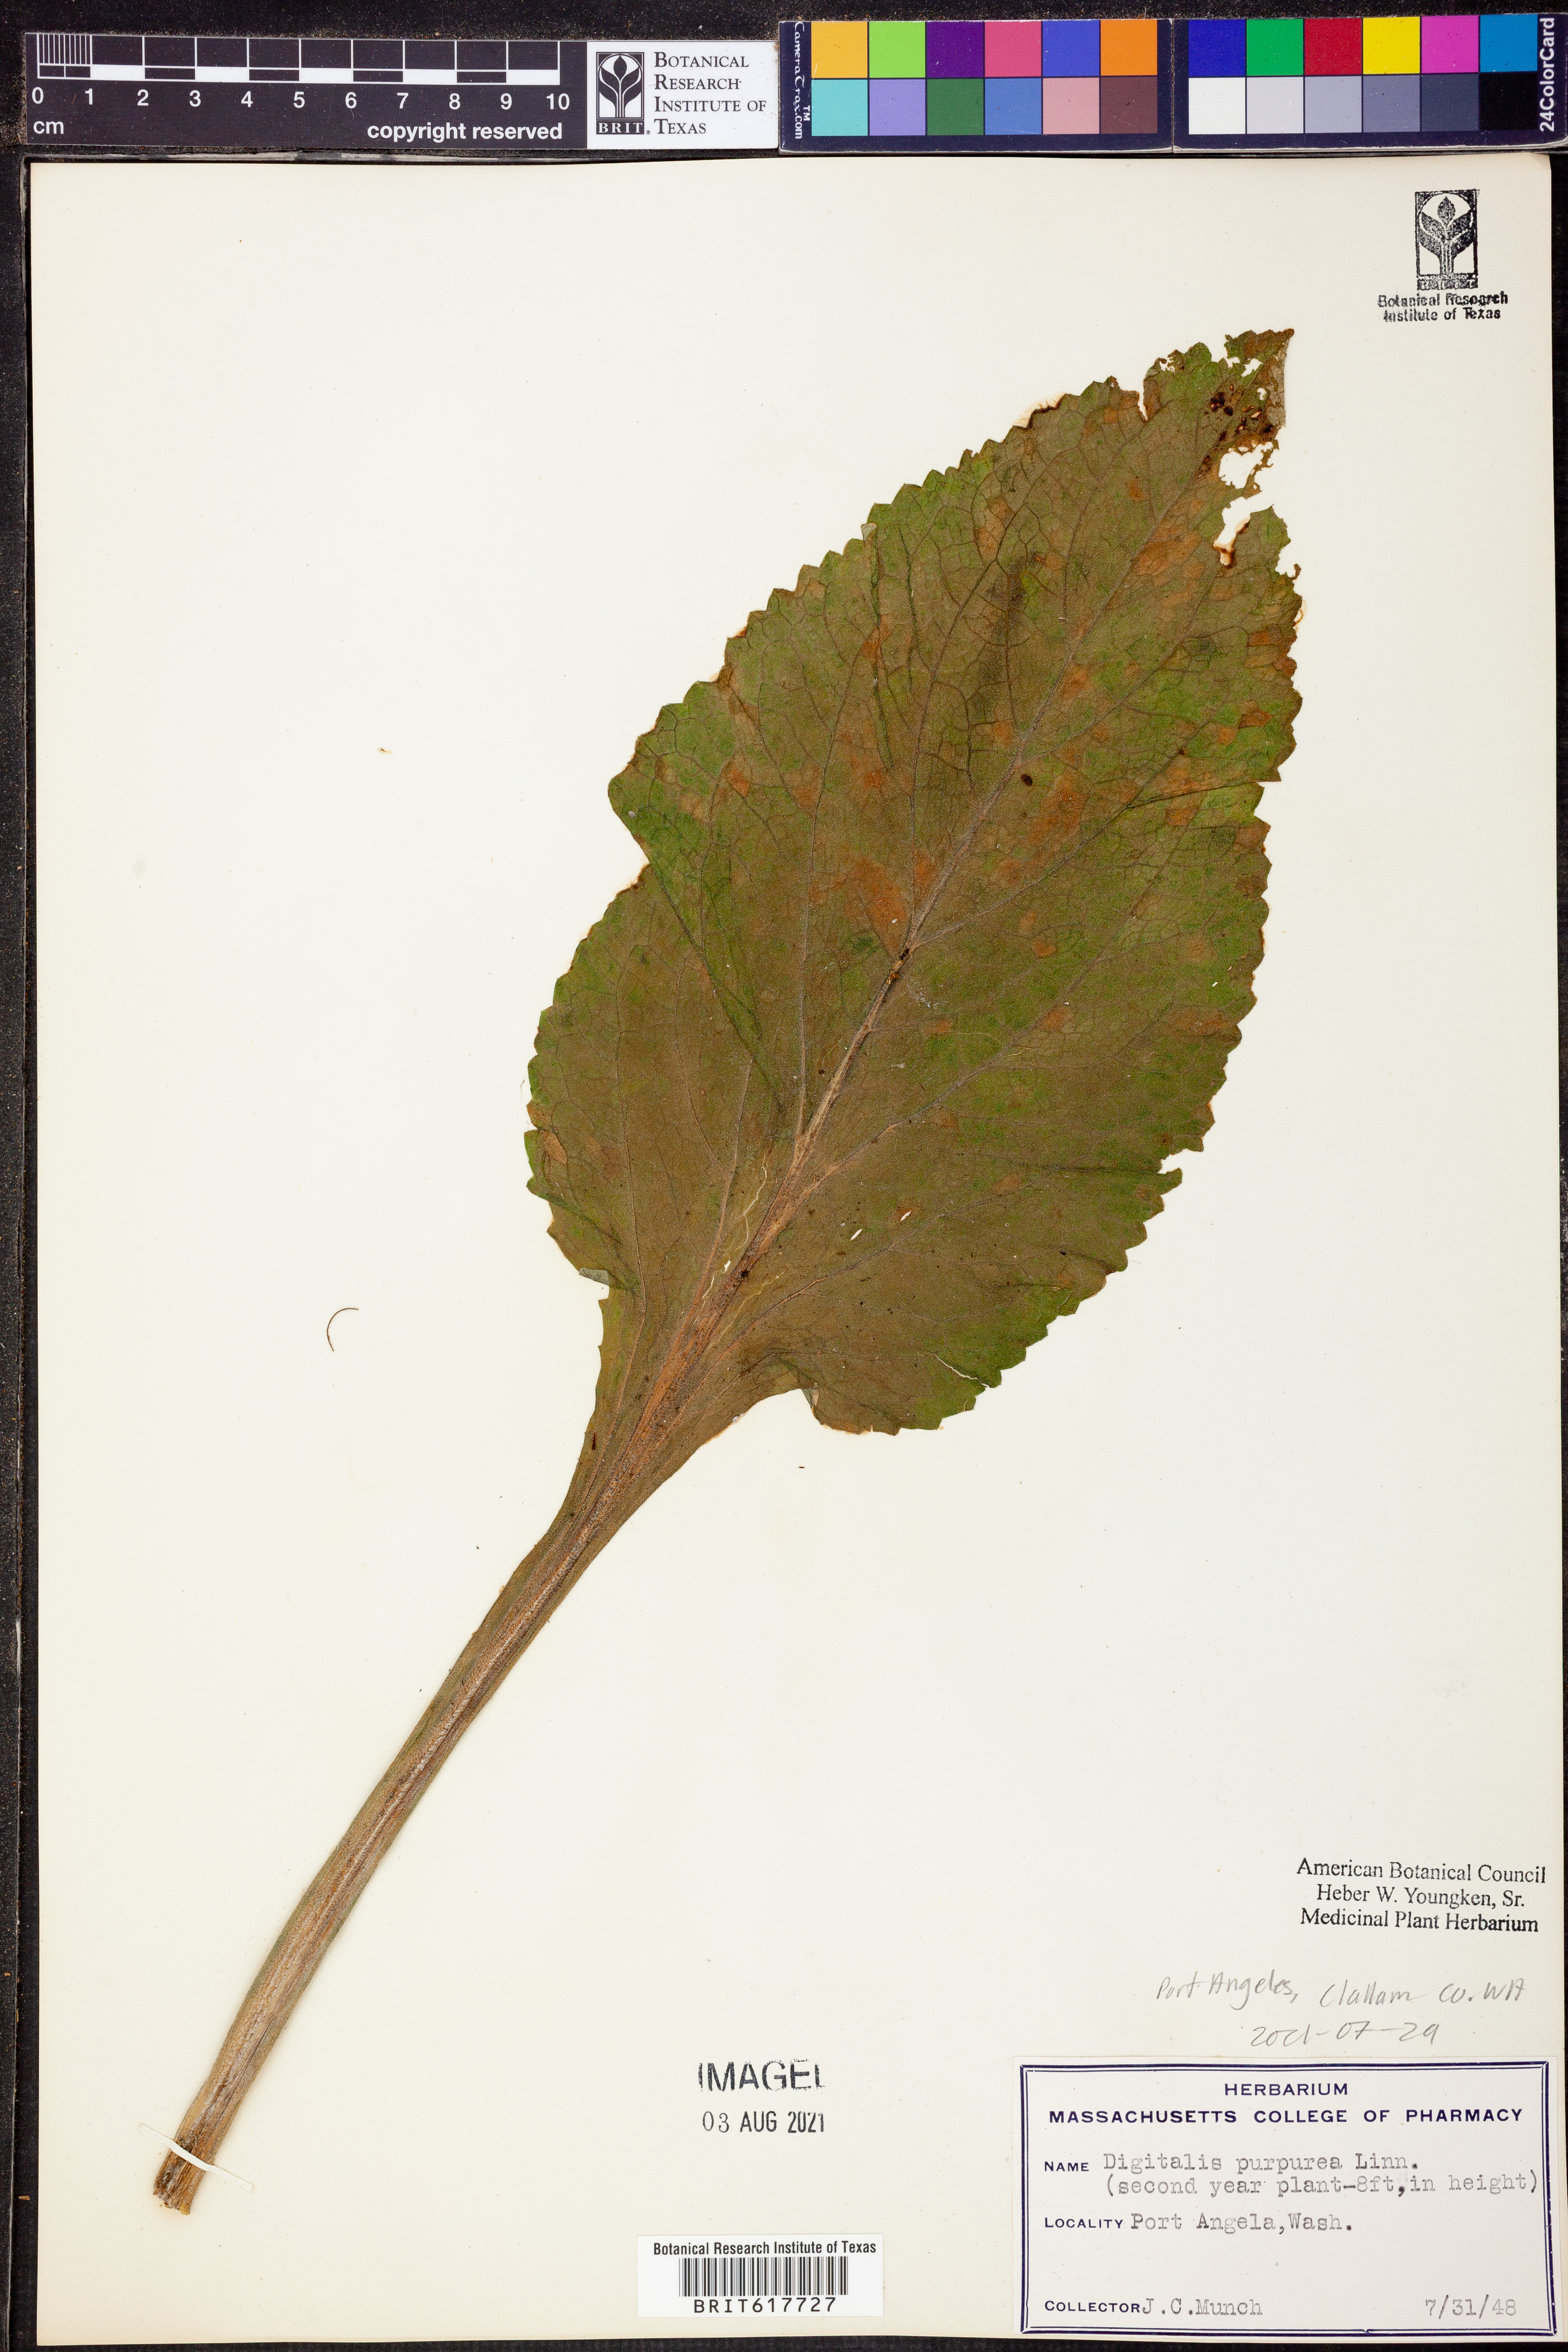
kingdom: Plantae
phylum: Tracheophyta
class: Magnoliopsida
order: Lamiales
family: Plantaginaceae
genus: Digitalis
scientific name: Digitalis purpurea
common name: Foxglove
